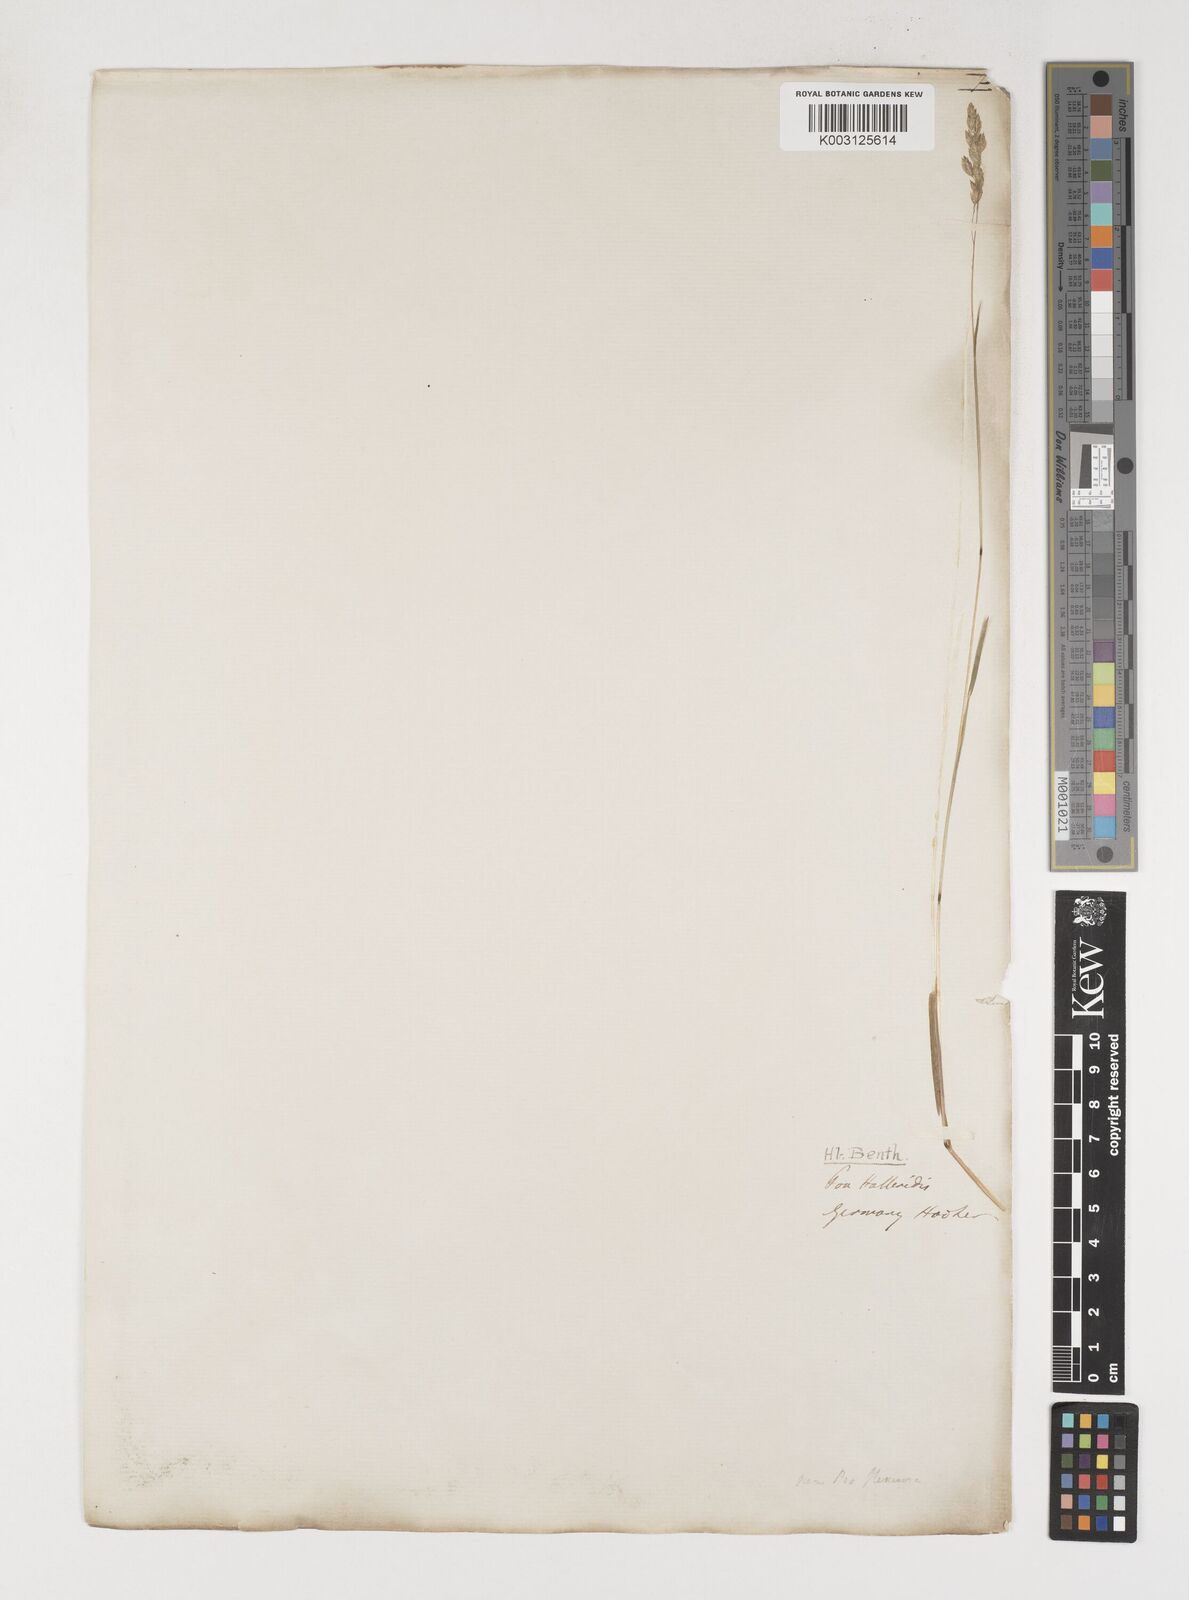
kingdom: Plantae
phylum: Tracheophyta
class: Liliopsida
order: Poales
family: Poaceae
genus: Poa
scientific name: Poa cenisia
